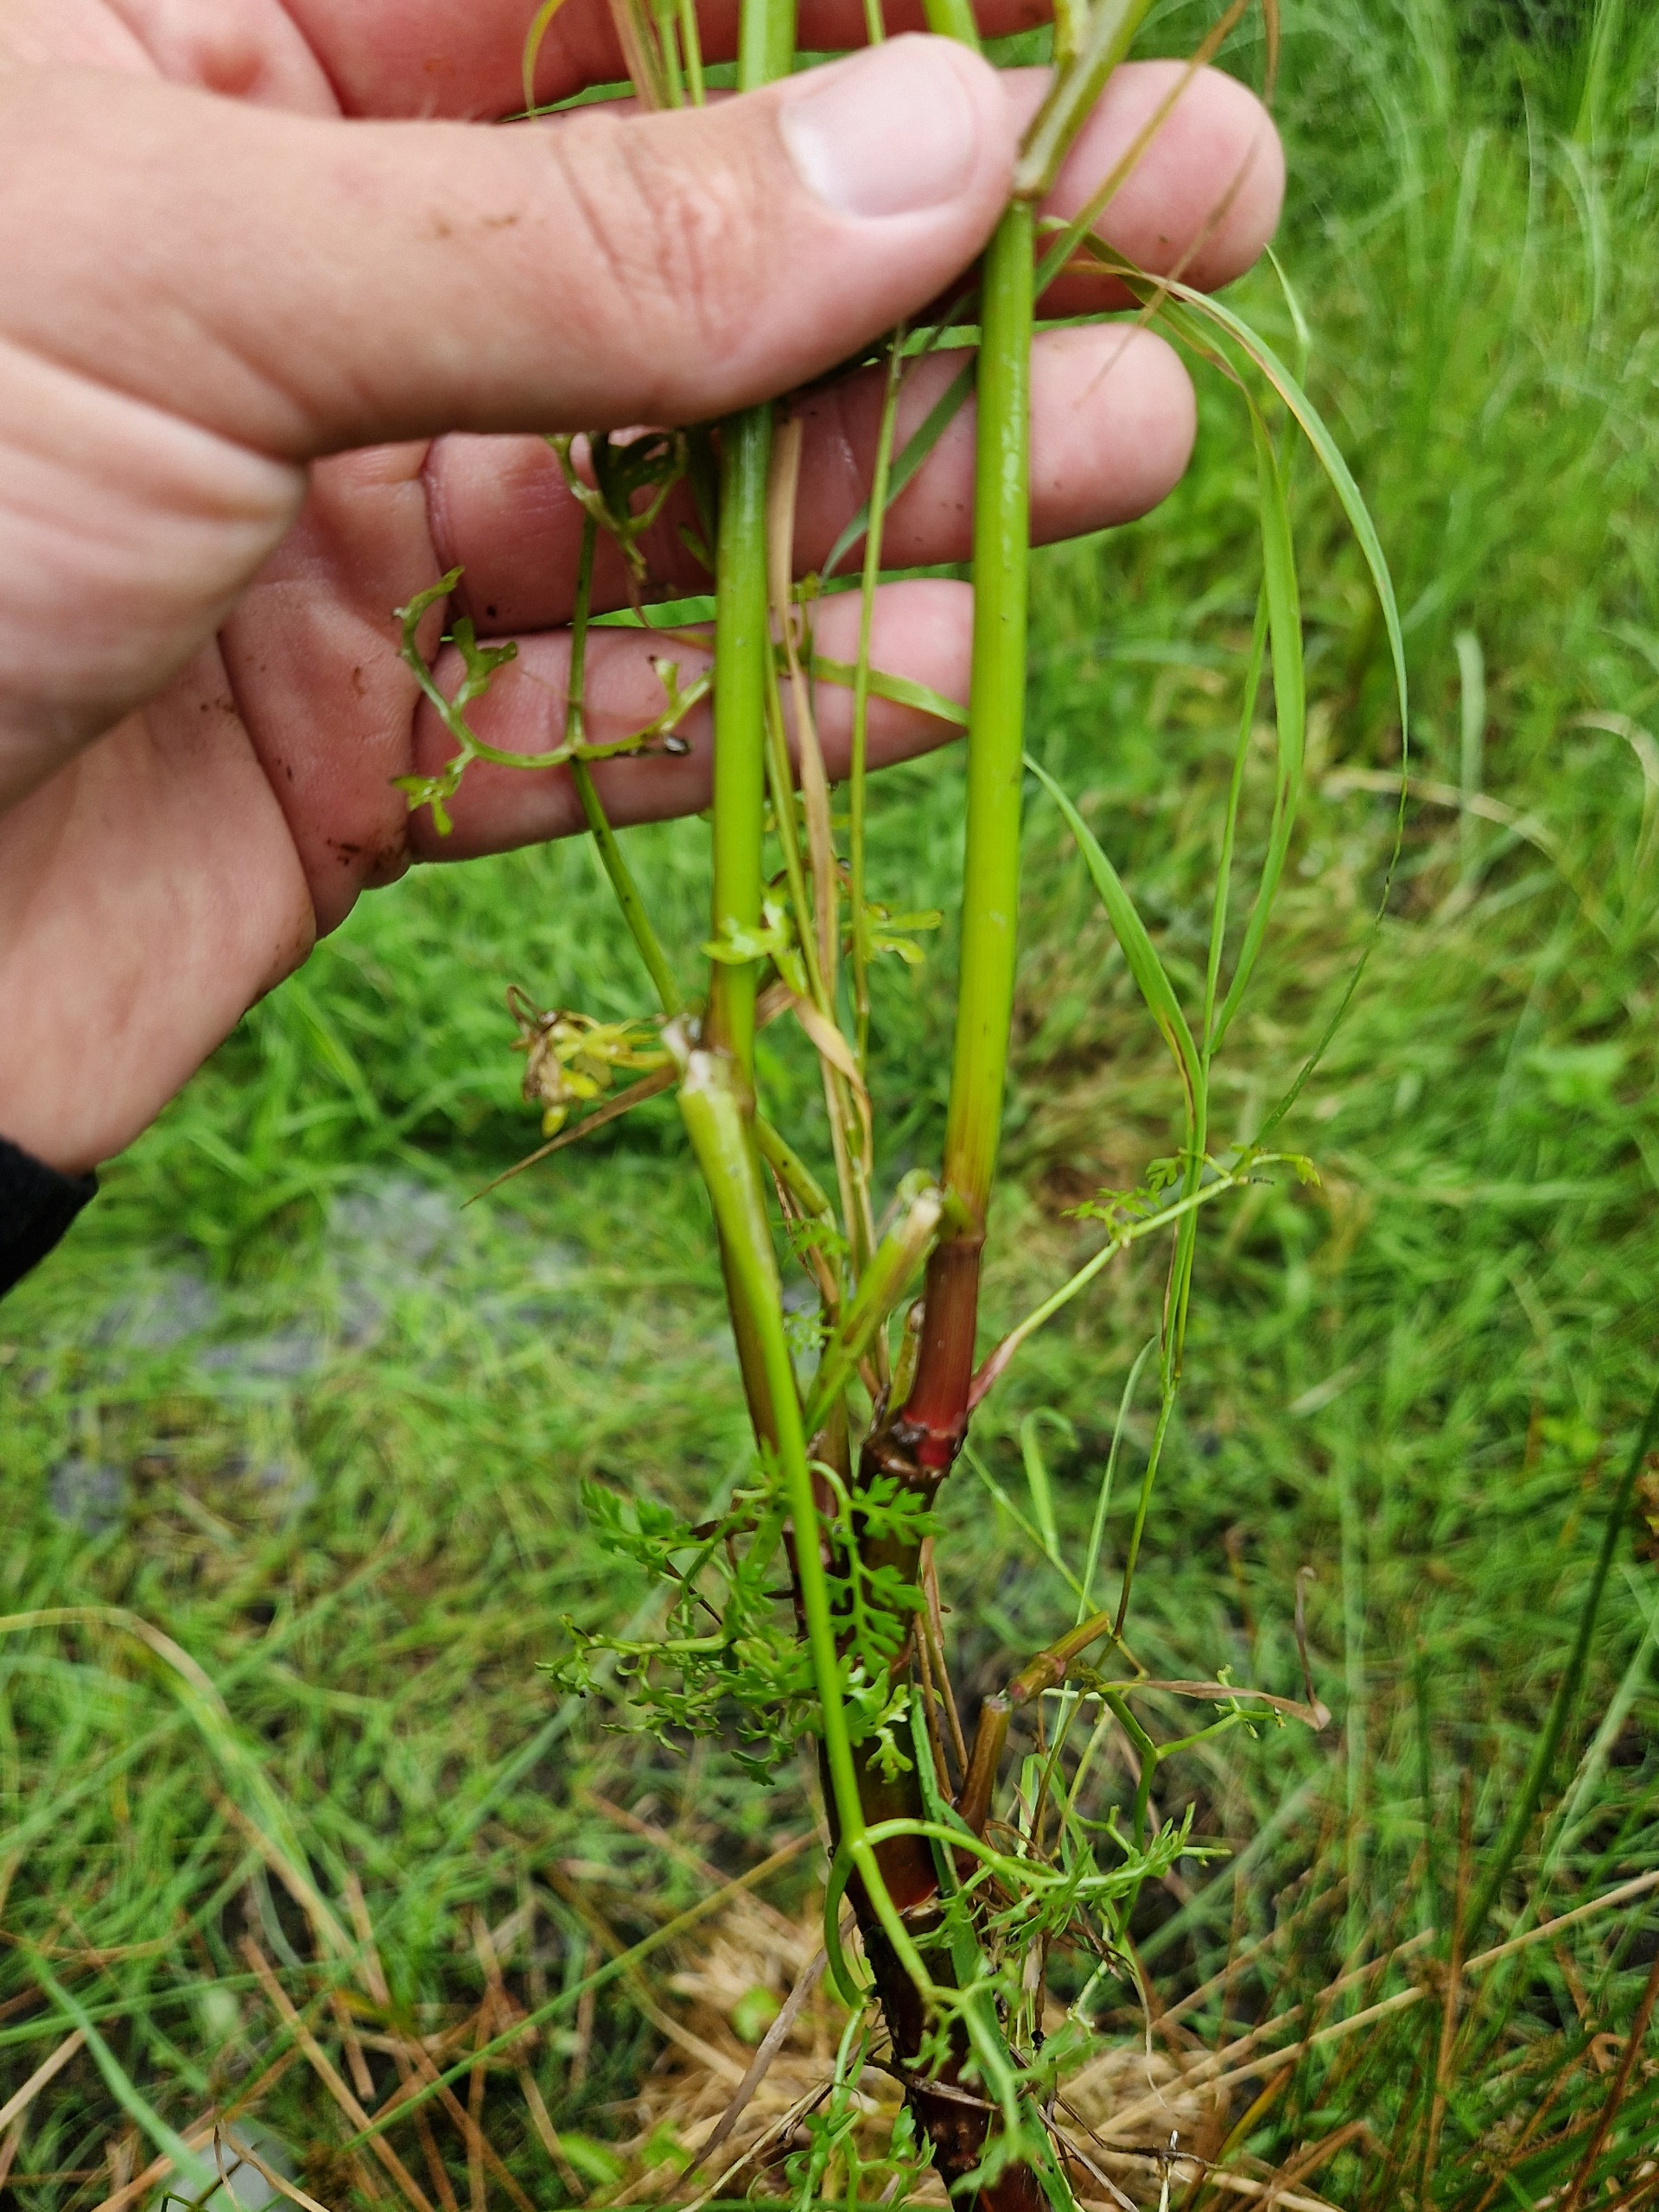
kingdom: Plantae
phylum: Tracheophyta
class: Magnoliopsida
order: Apiales
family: Apiaceae
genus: Oenanthe
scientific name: Oenanthe aquatica
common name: Billebo-klaseskærm
